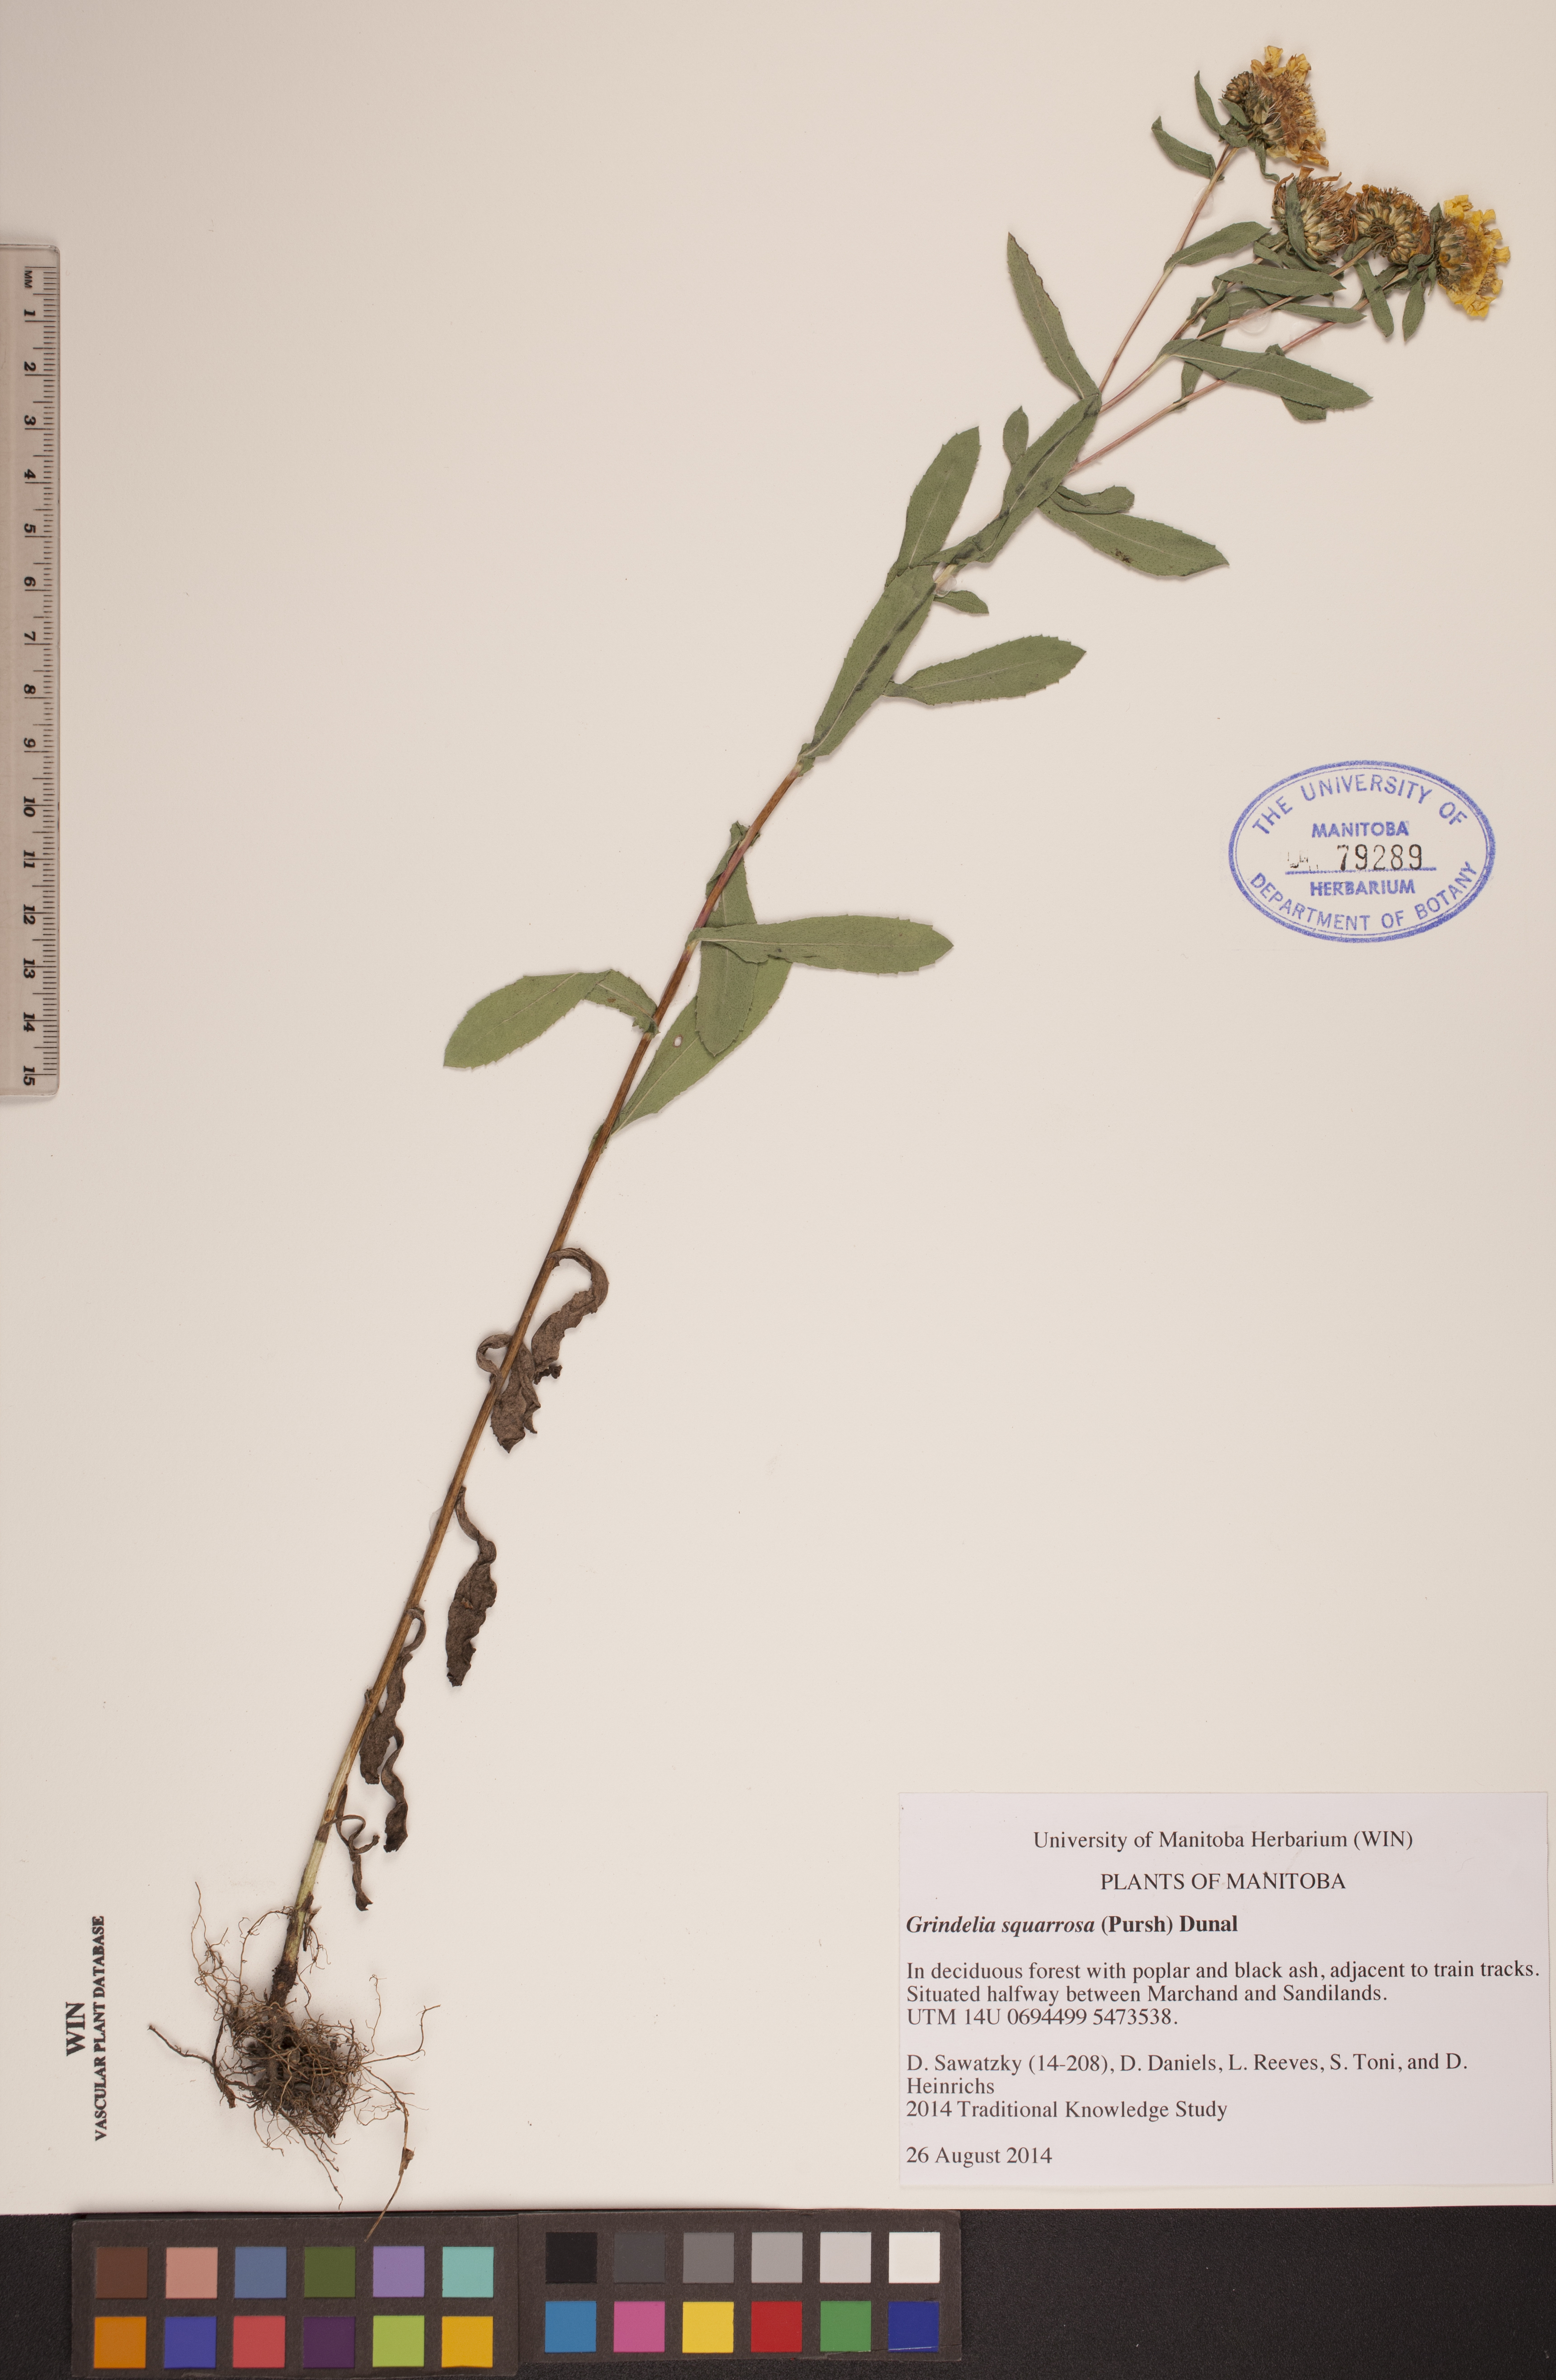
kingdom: Plantae
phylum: Tracheophyta
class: Magnoliopsida
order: Asterales
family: Asteraceae
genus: Grindelia
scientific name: Grindelia squarrosa
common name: Curly-cup gumweed
